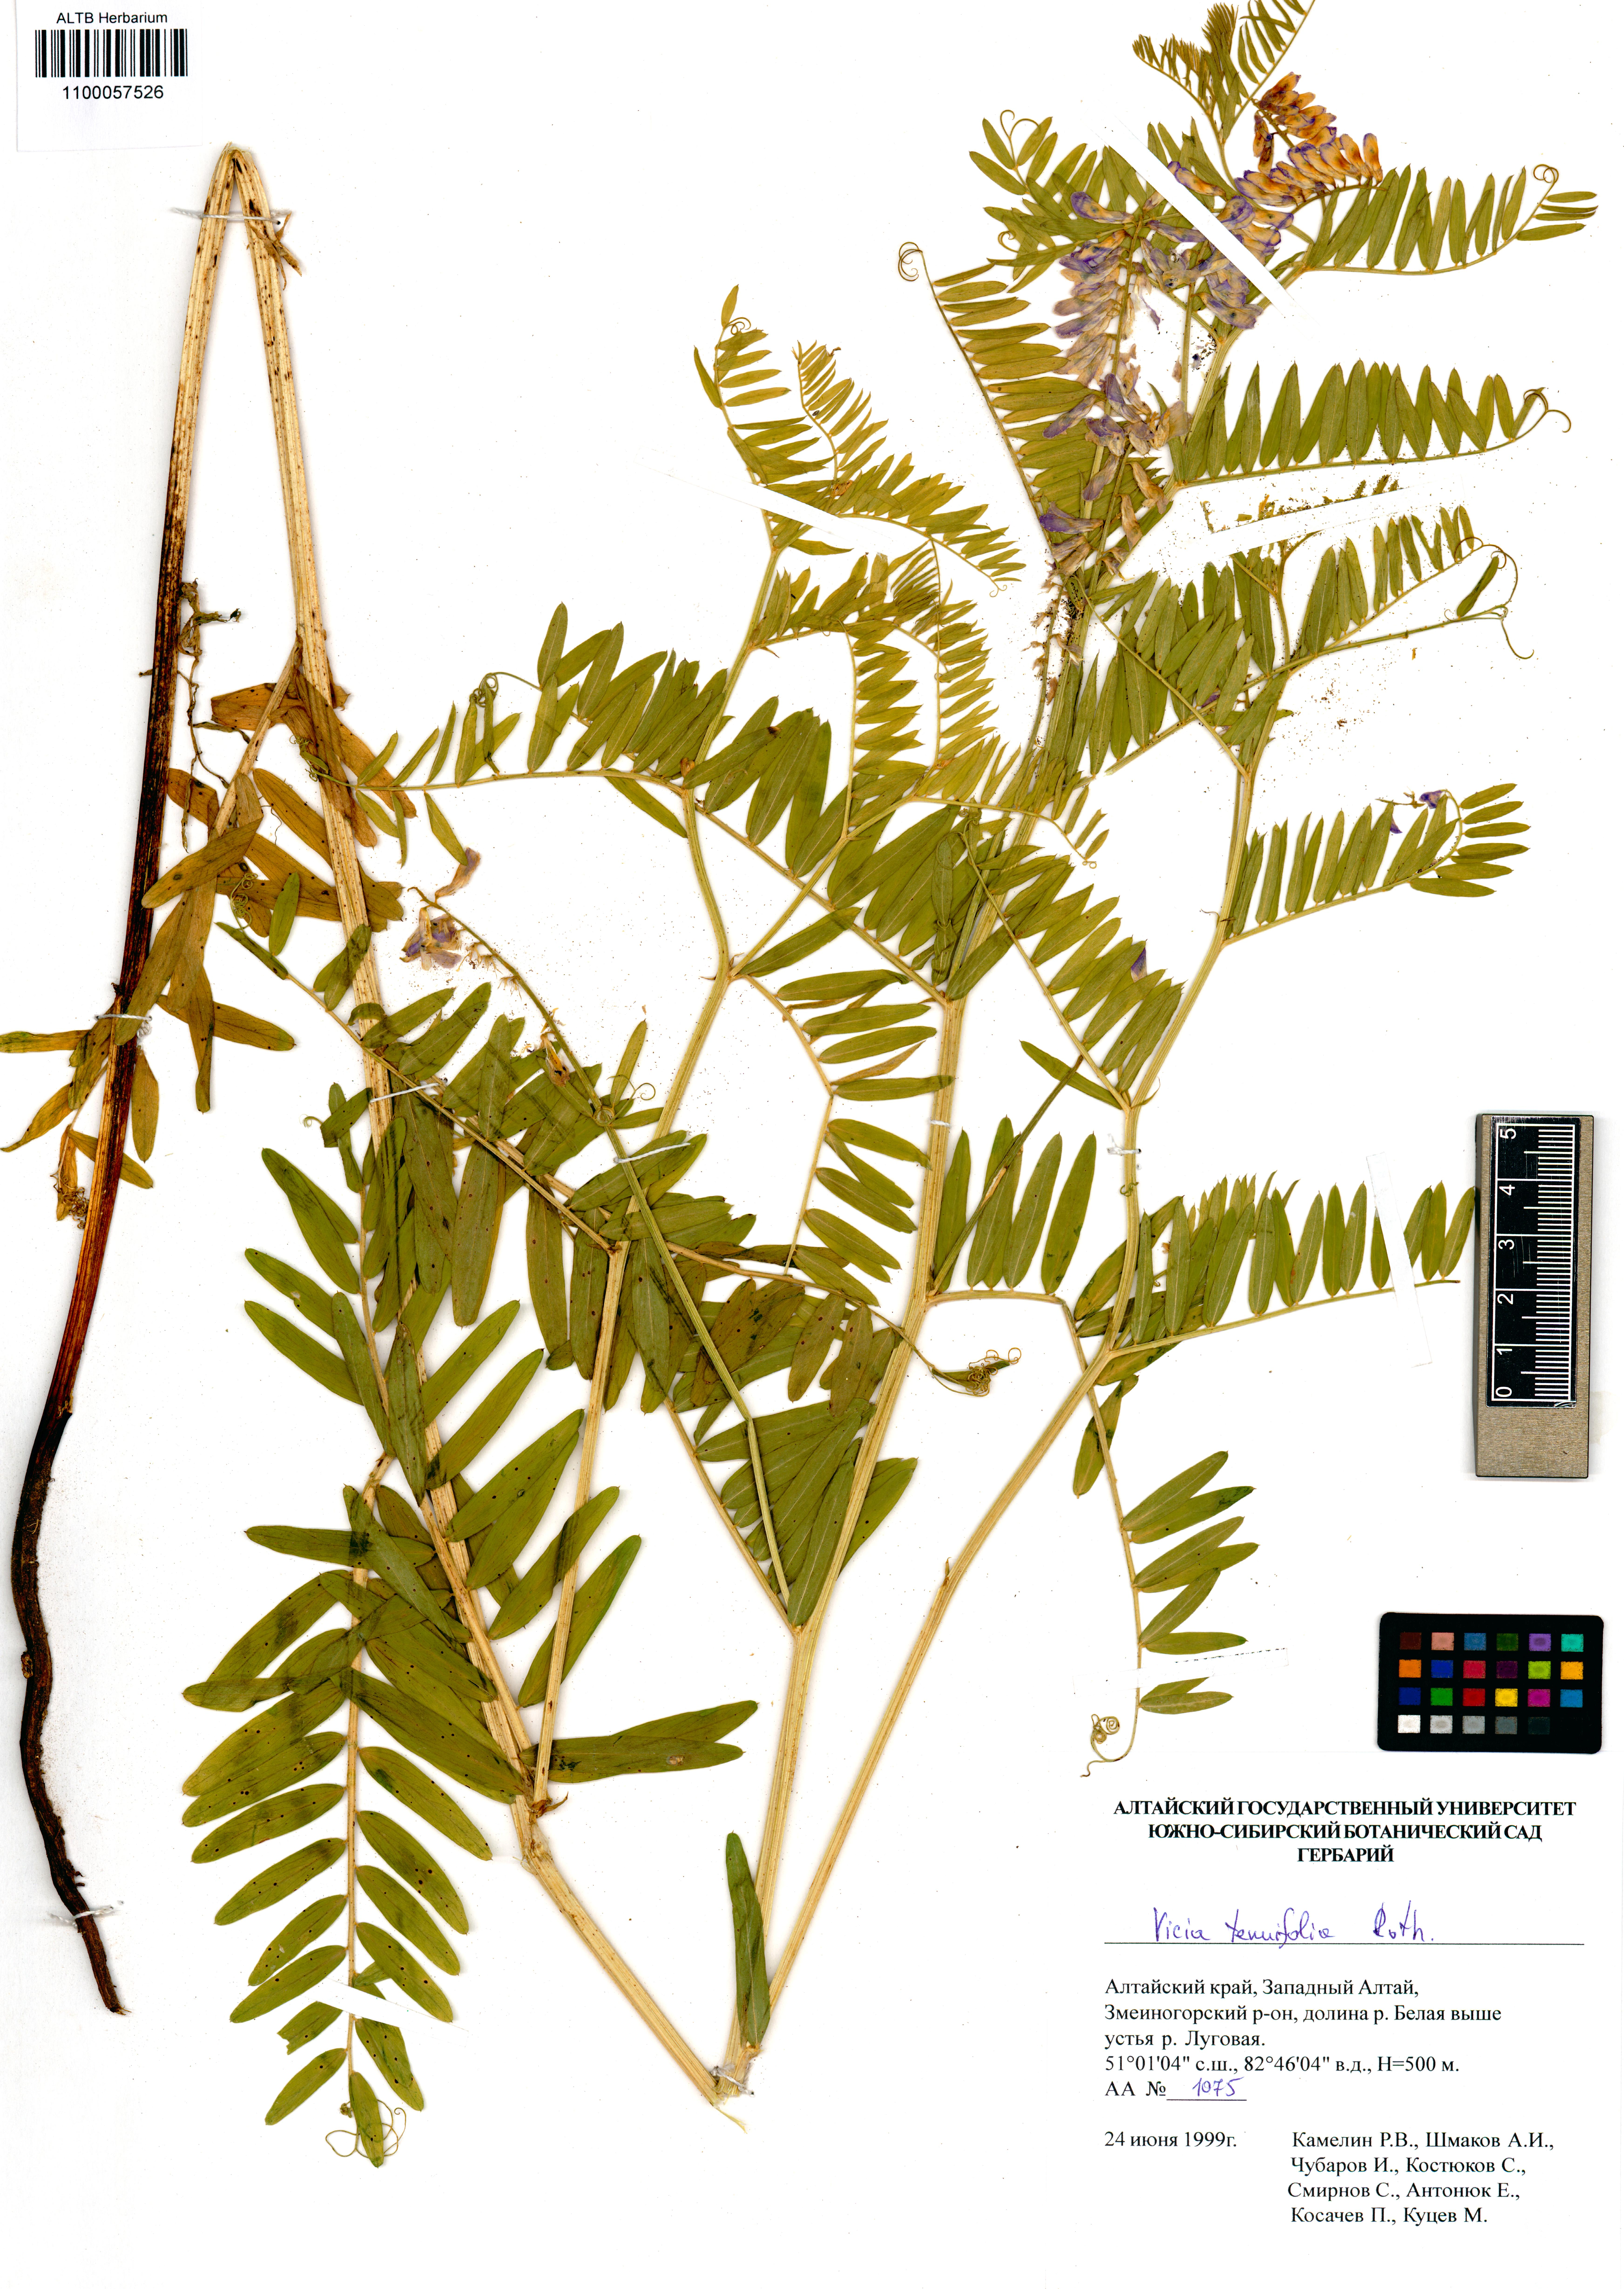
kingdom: Plantae
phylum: Tracheophyta
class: Magnoliopsida
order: Fabales
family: Fabaceae
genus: Vicia
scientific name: Vicia tenuifolia
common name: Fine-leaved vetch
